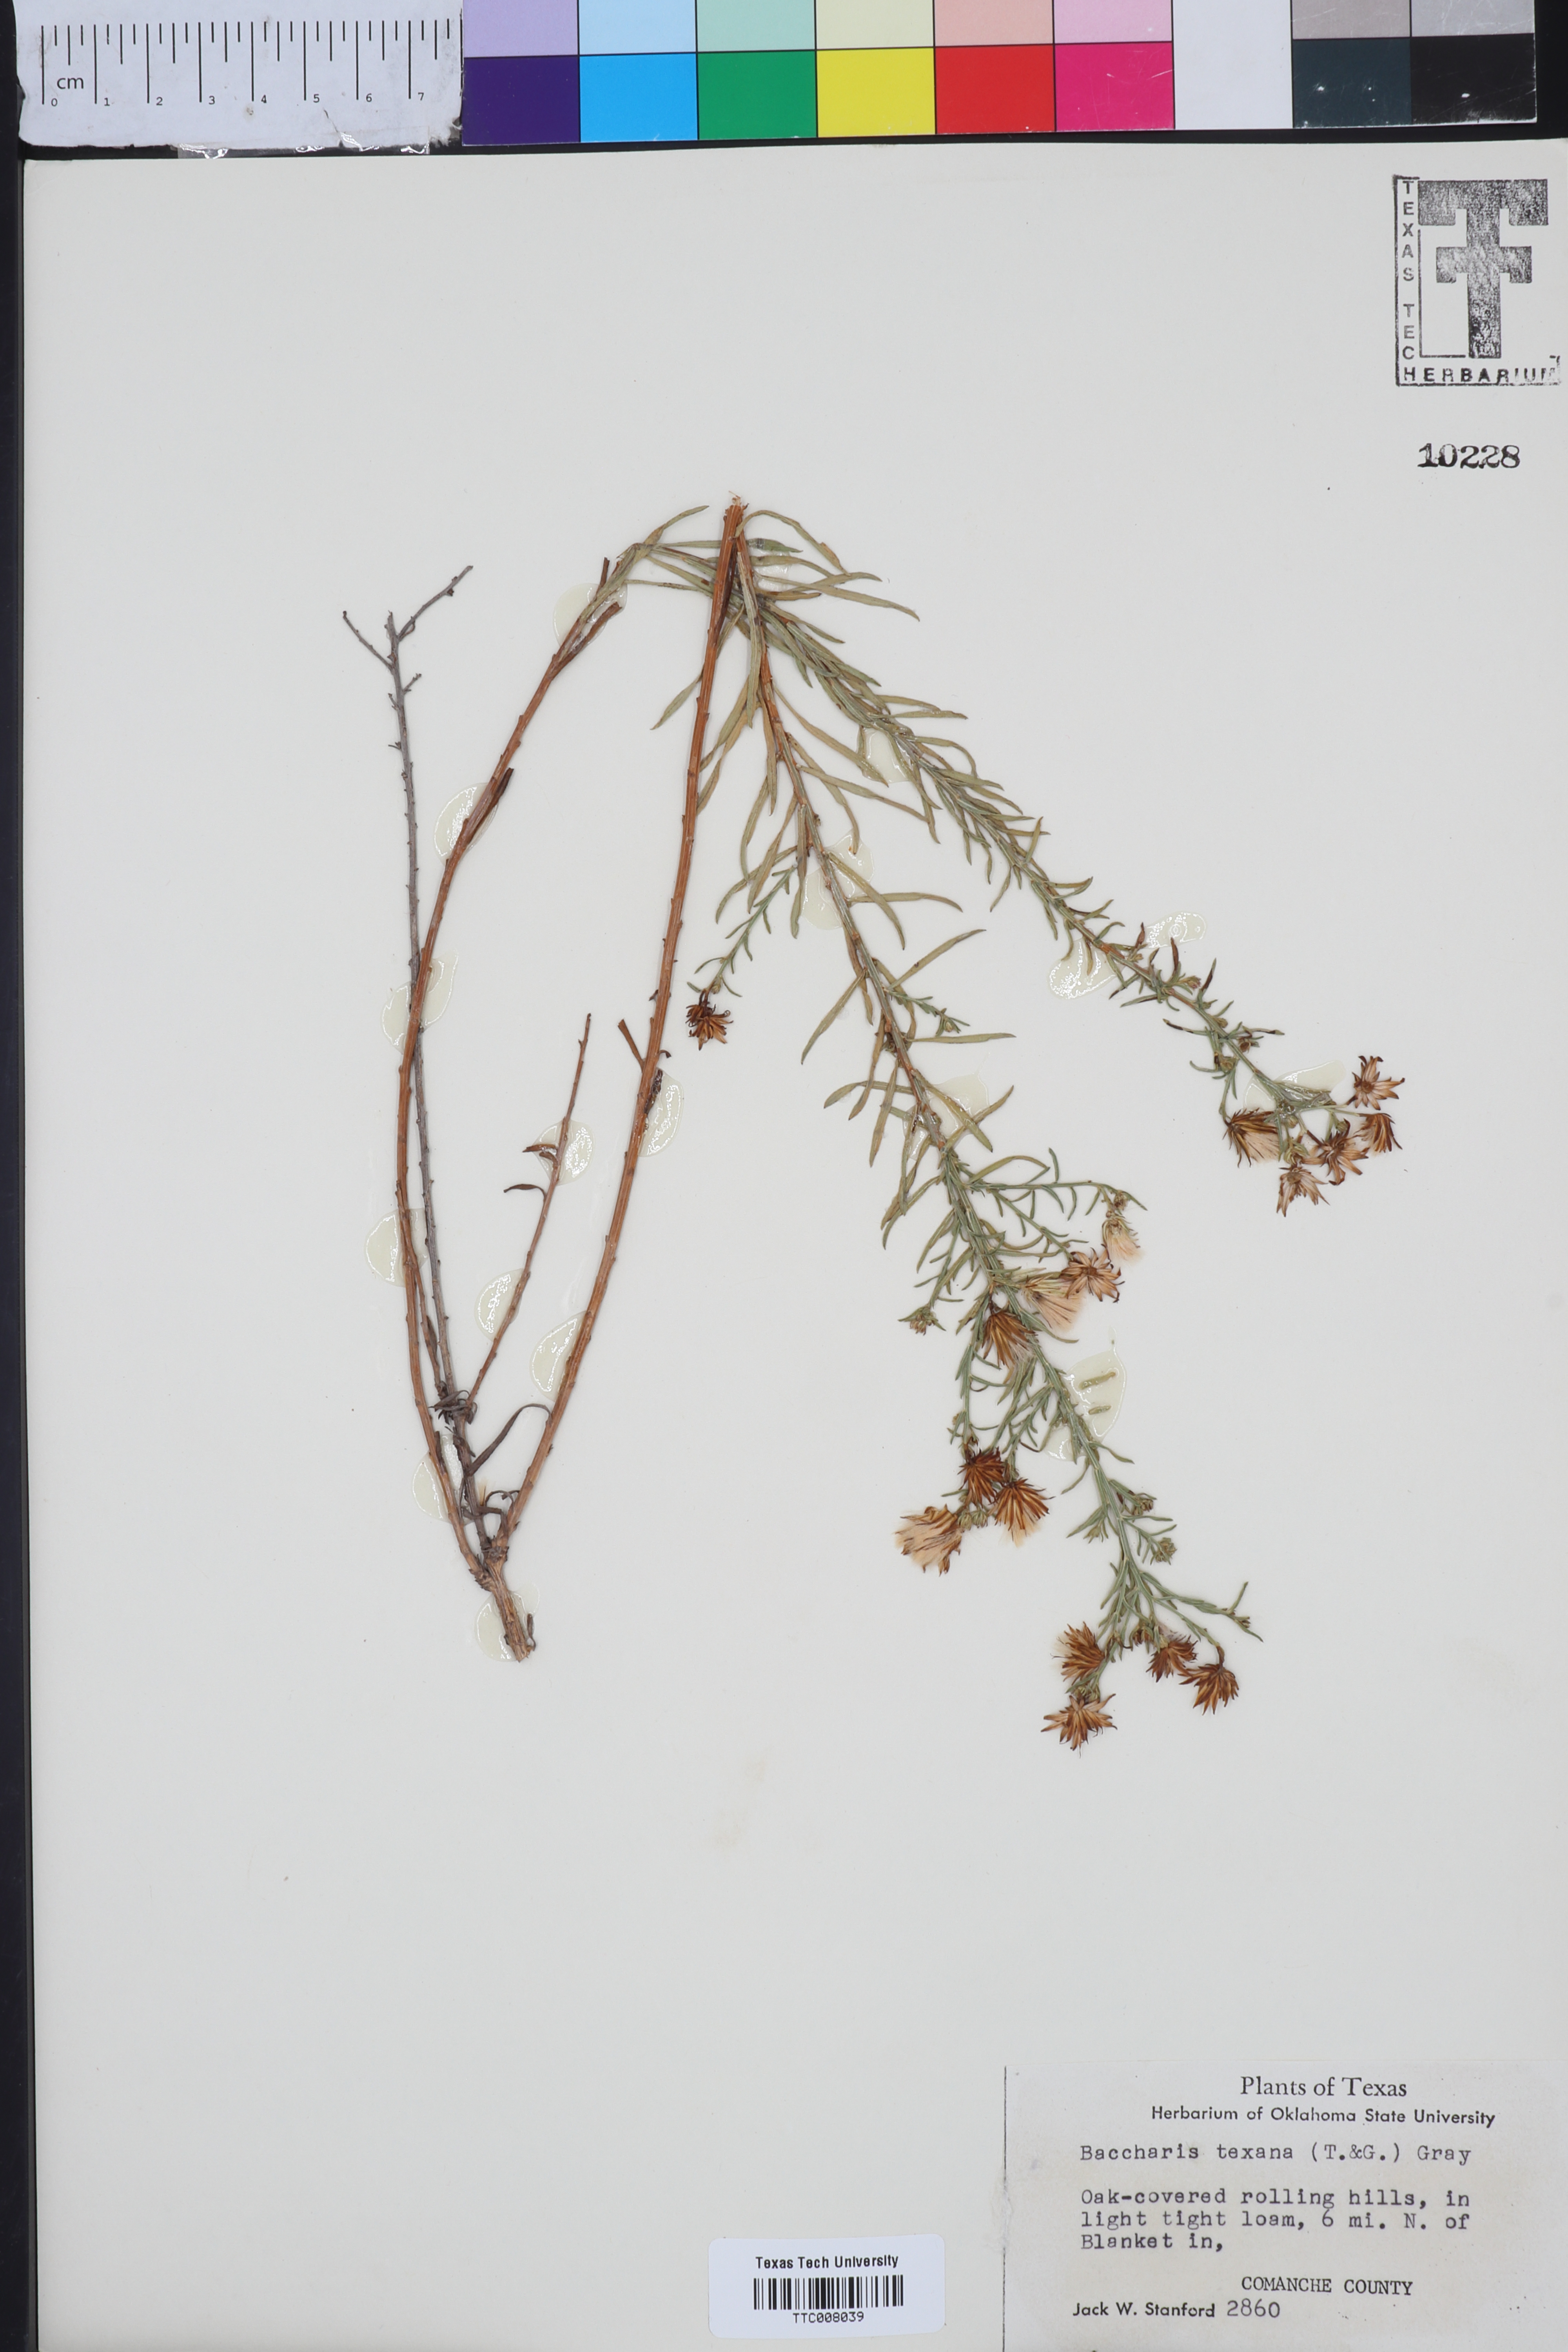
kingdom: Plantae
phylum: Tracheophyta
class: Magnoliopsida
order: Asterales
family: Asteraceae
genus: Baccharis
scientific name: Baccharis texana
